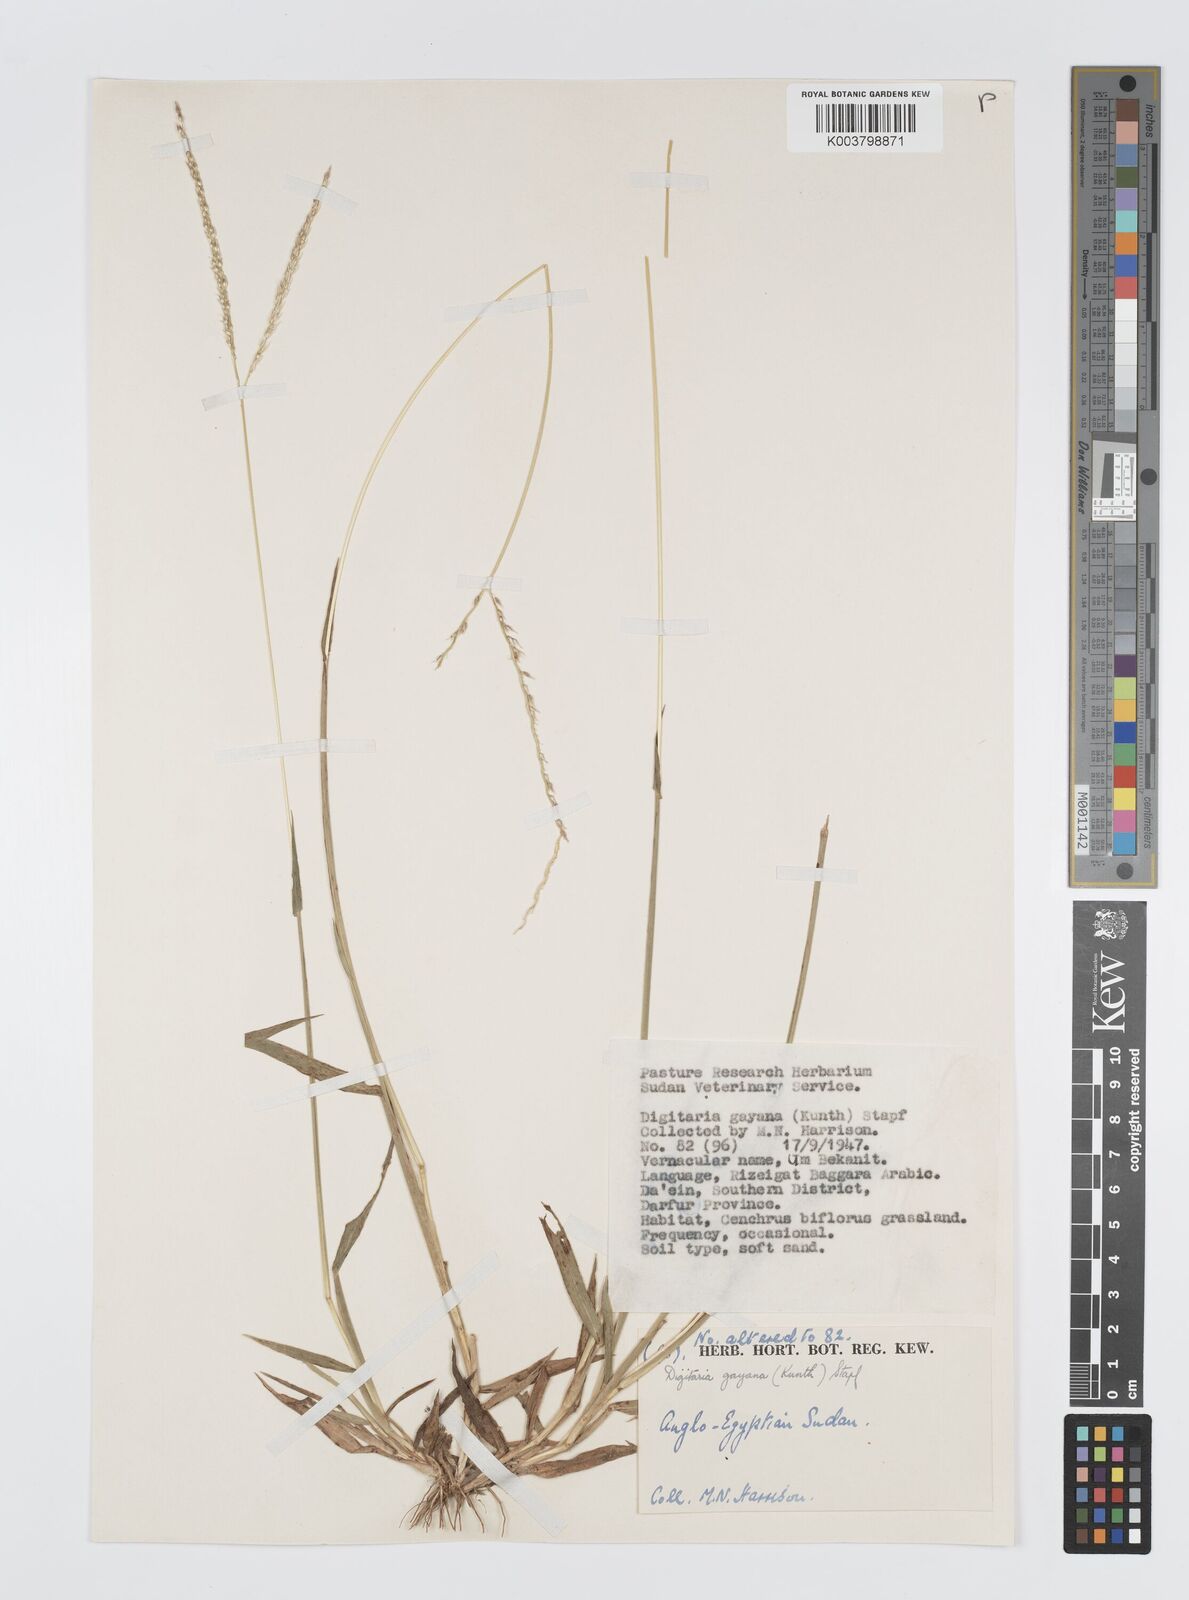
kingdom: Plantae
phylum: Tracheophyta
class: Liliopsida
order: Poales
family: Poaceae
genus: Digitaria
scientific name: Digitaria gayana
